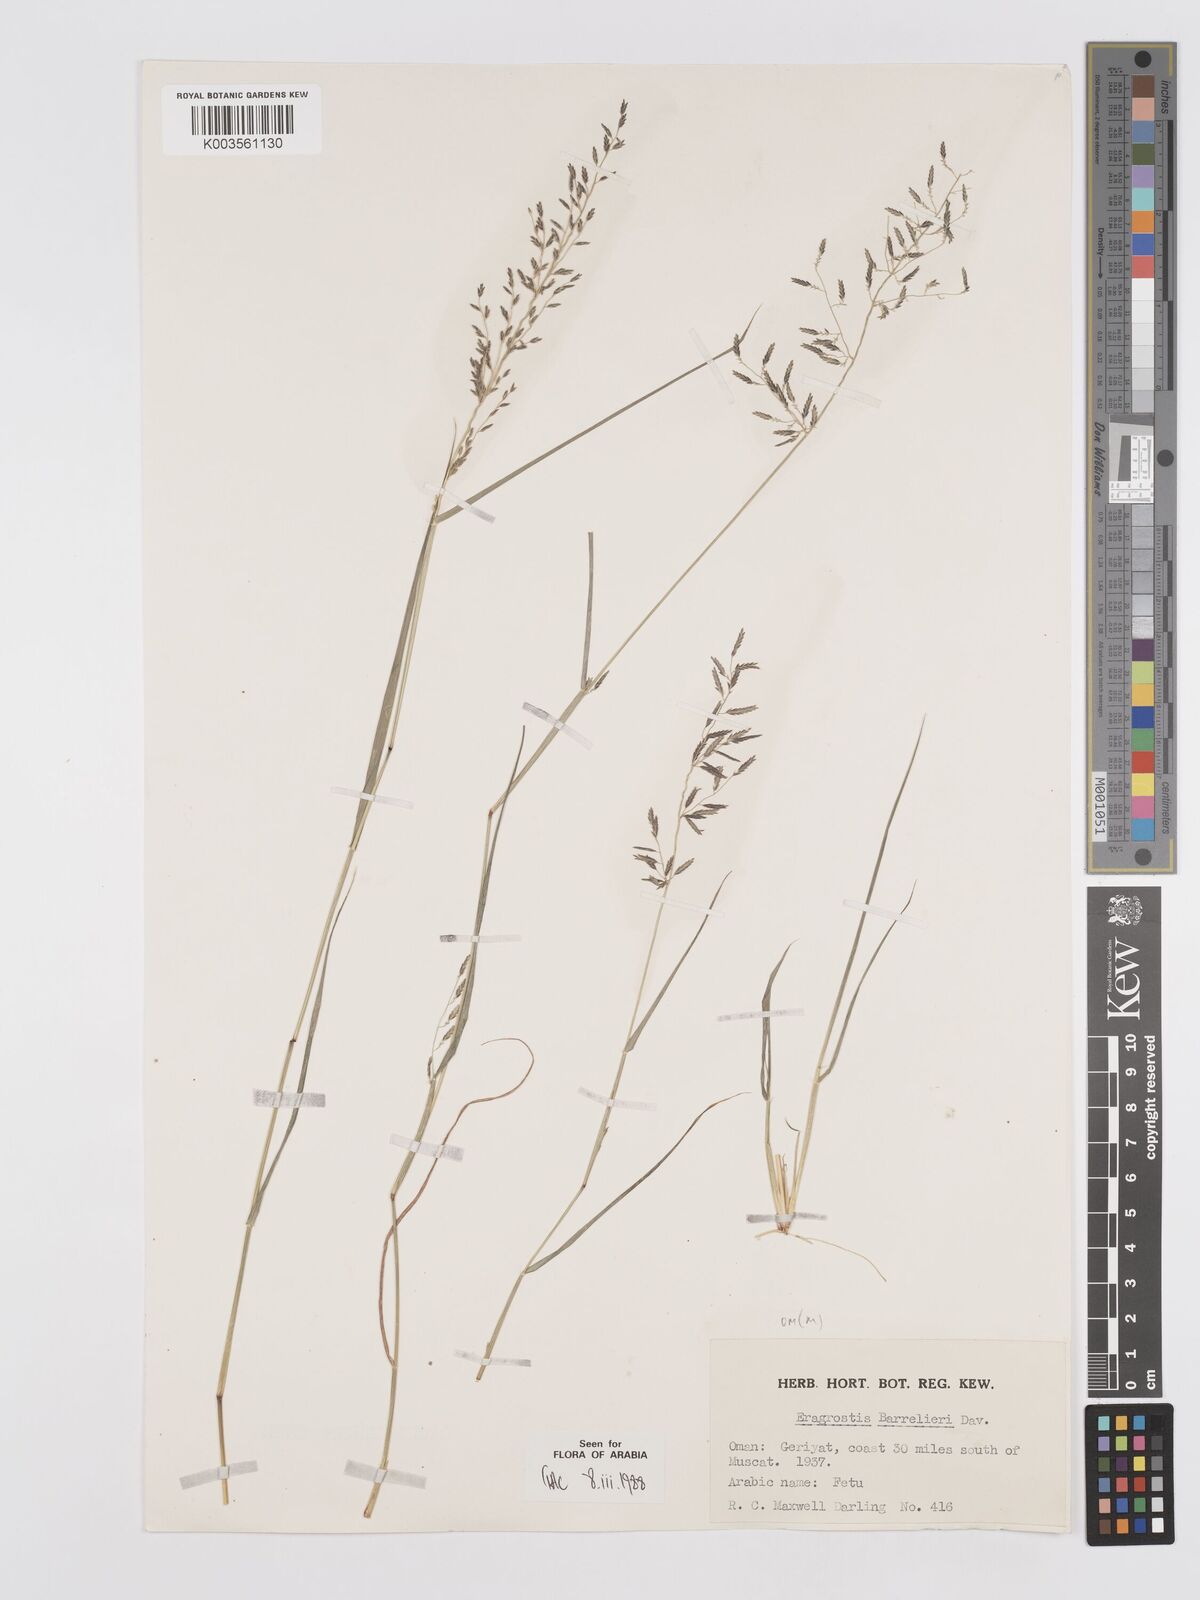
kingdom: Plantae
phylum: Tracheophyta
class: Liliopsida
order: Poales
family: Poaceae
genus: Eragrostis
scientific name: Eragrostis barrelieri
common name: Mediterranean lovegrass
